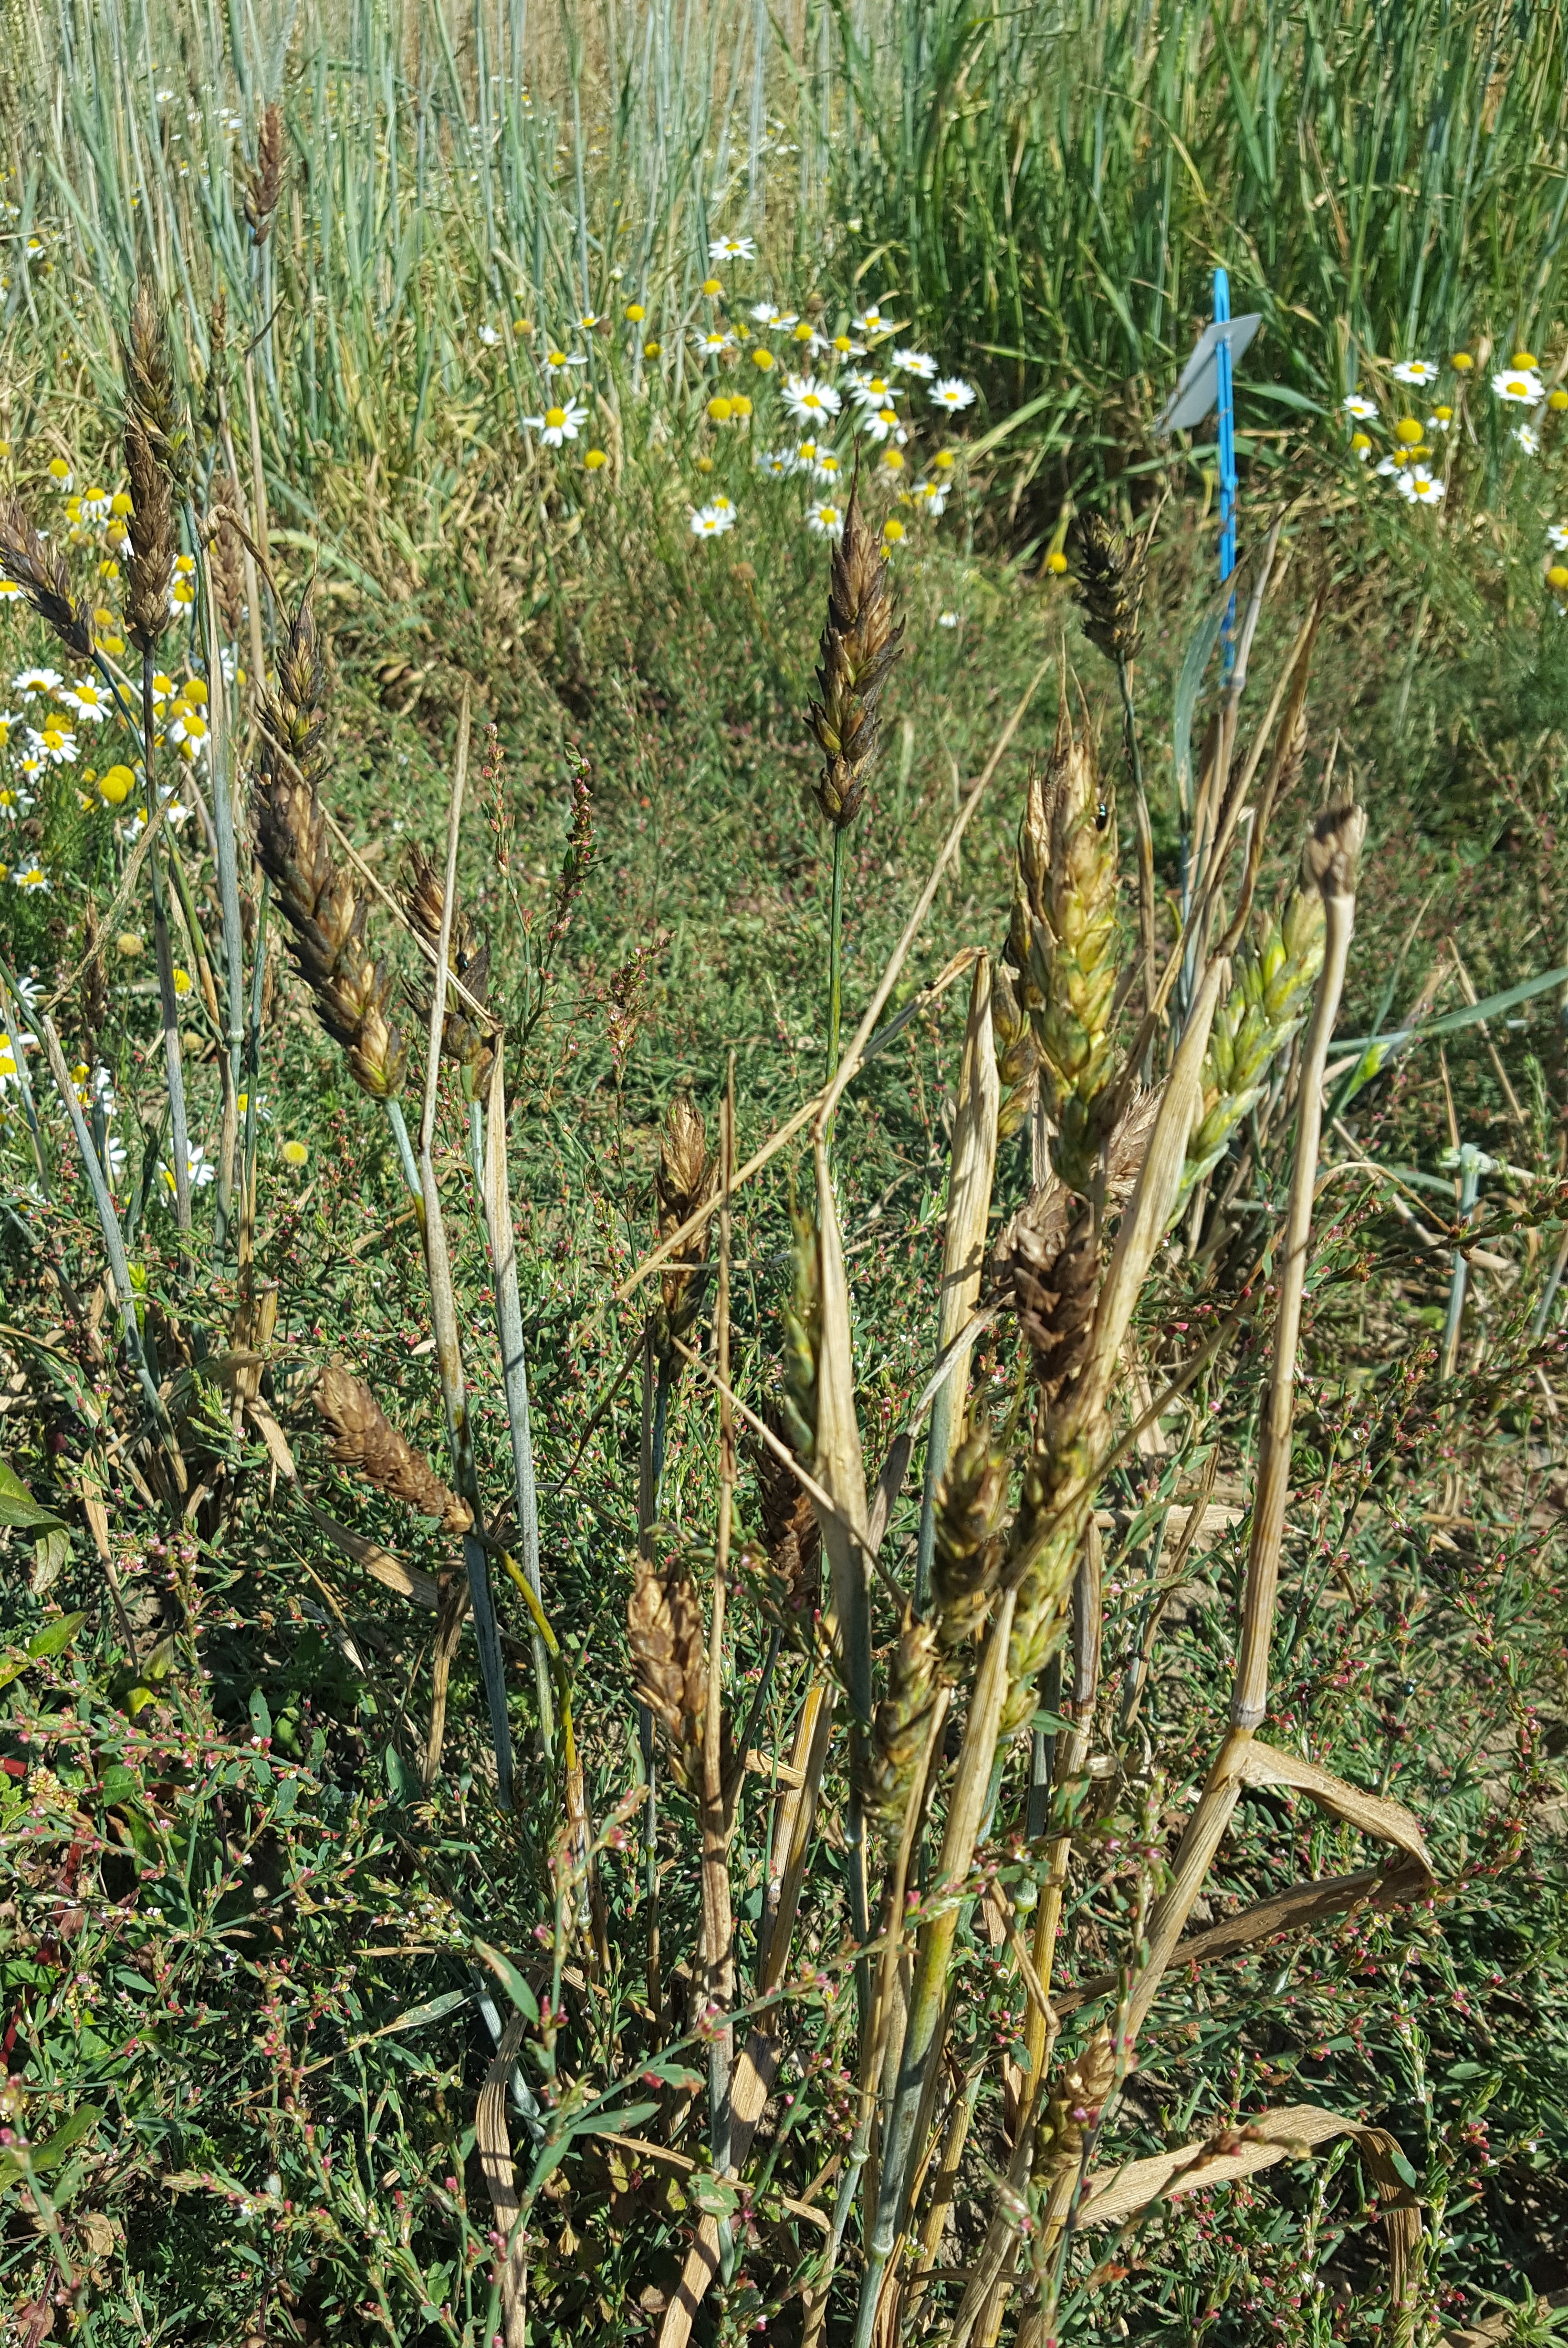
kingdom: Plantae
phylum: Tracheophyta
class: Liliopsida
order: Poales
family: Poaceae
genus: Triticum
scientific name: Triticum aestivum
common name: Common wheat
